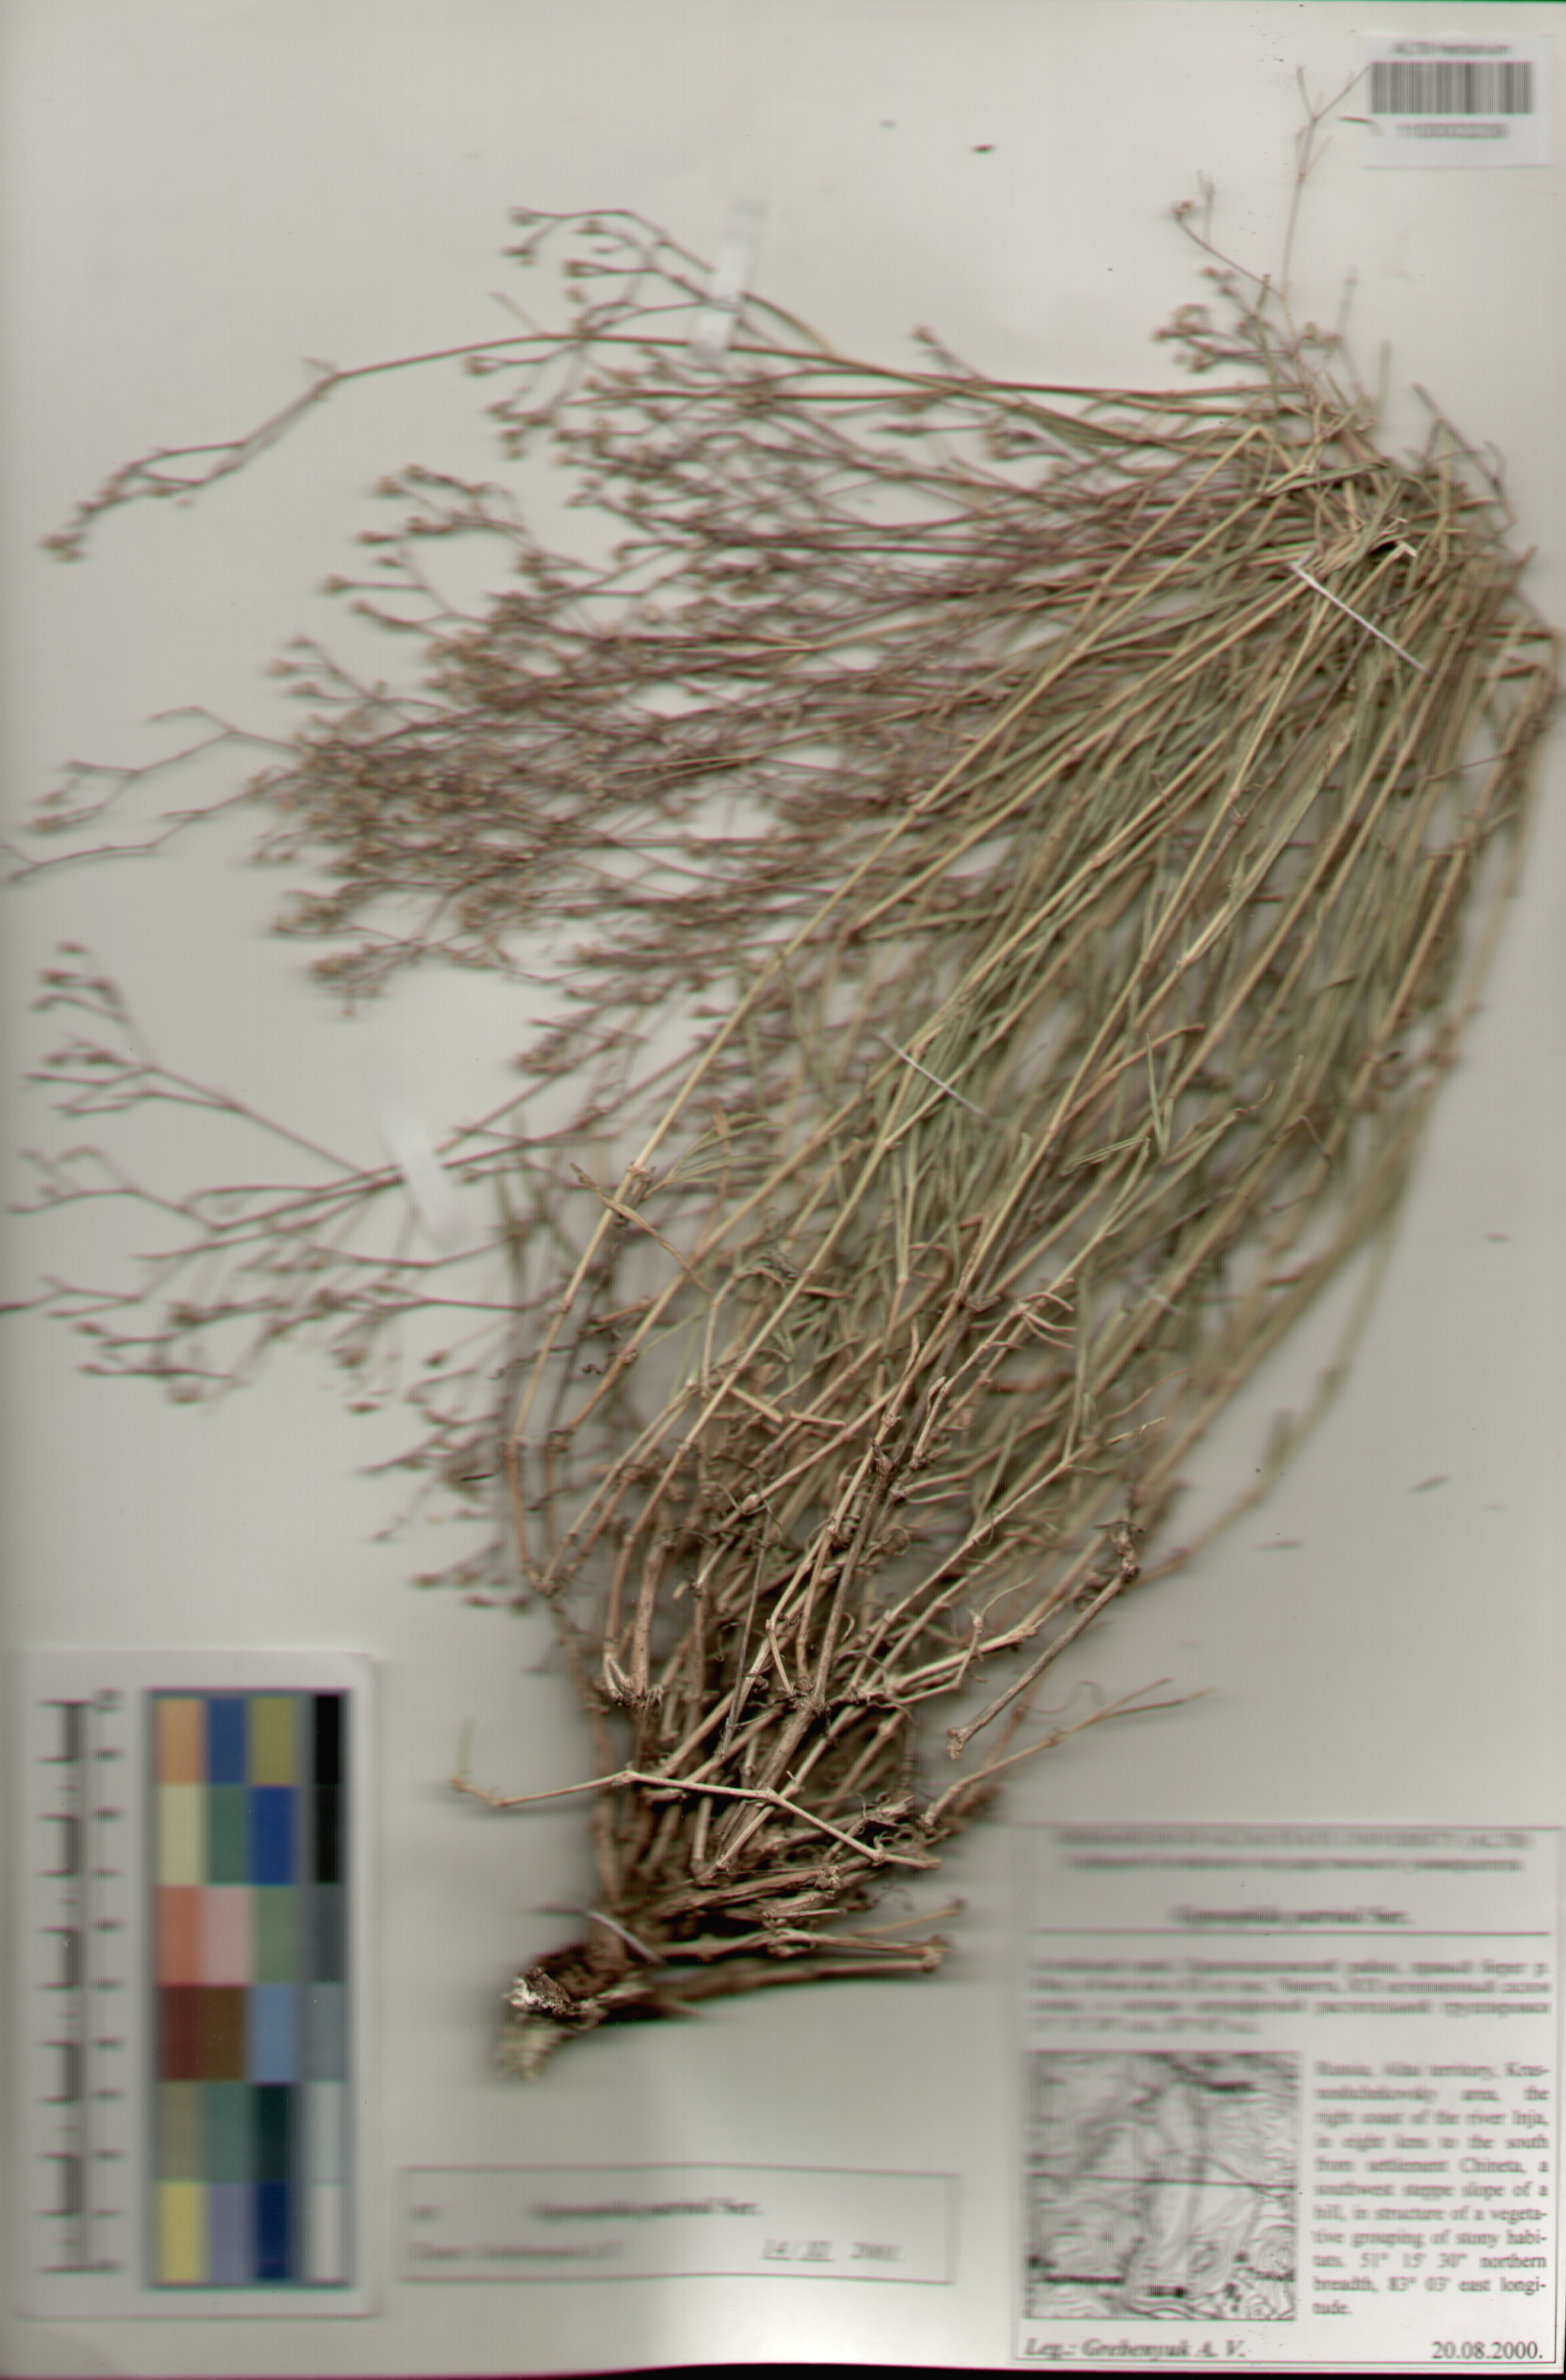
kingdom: Plantae
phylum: Tracheophyta
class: Magnoliopsida
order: Caryophyllales
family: Caryophyllaceae
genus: Gypsophila
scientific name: Gypsophila patrinii
